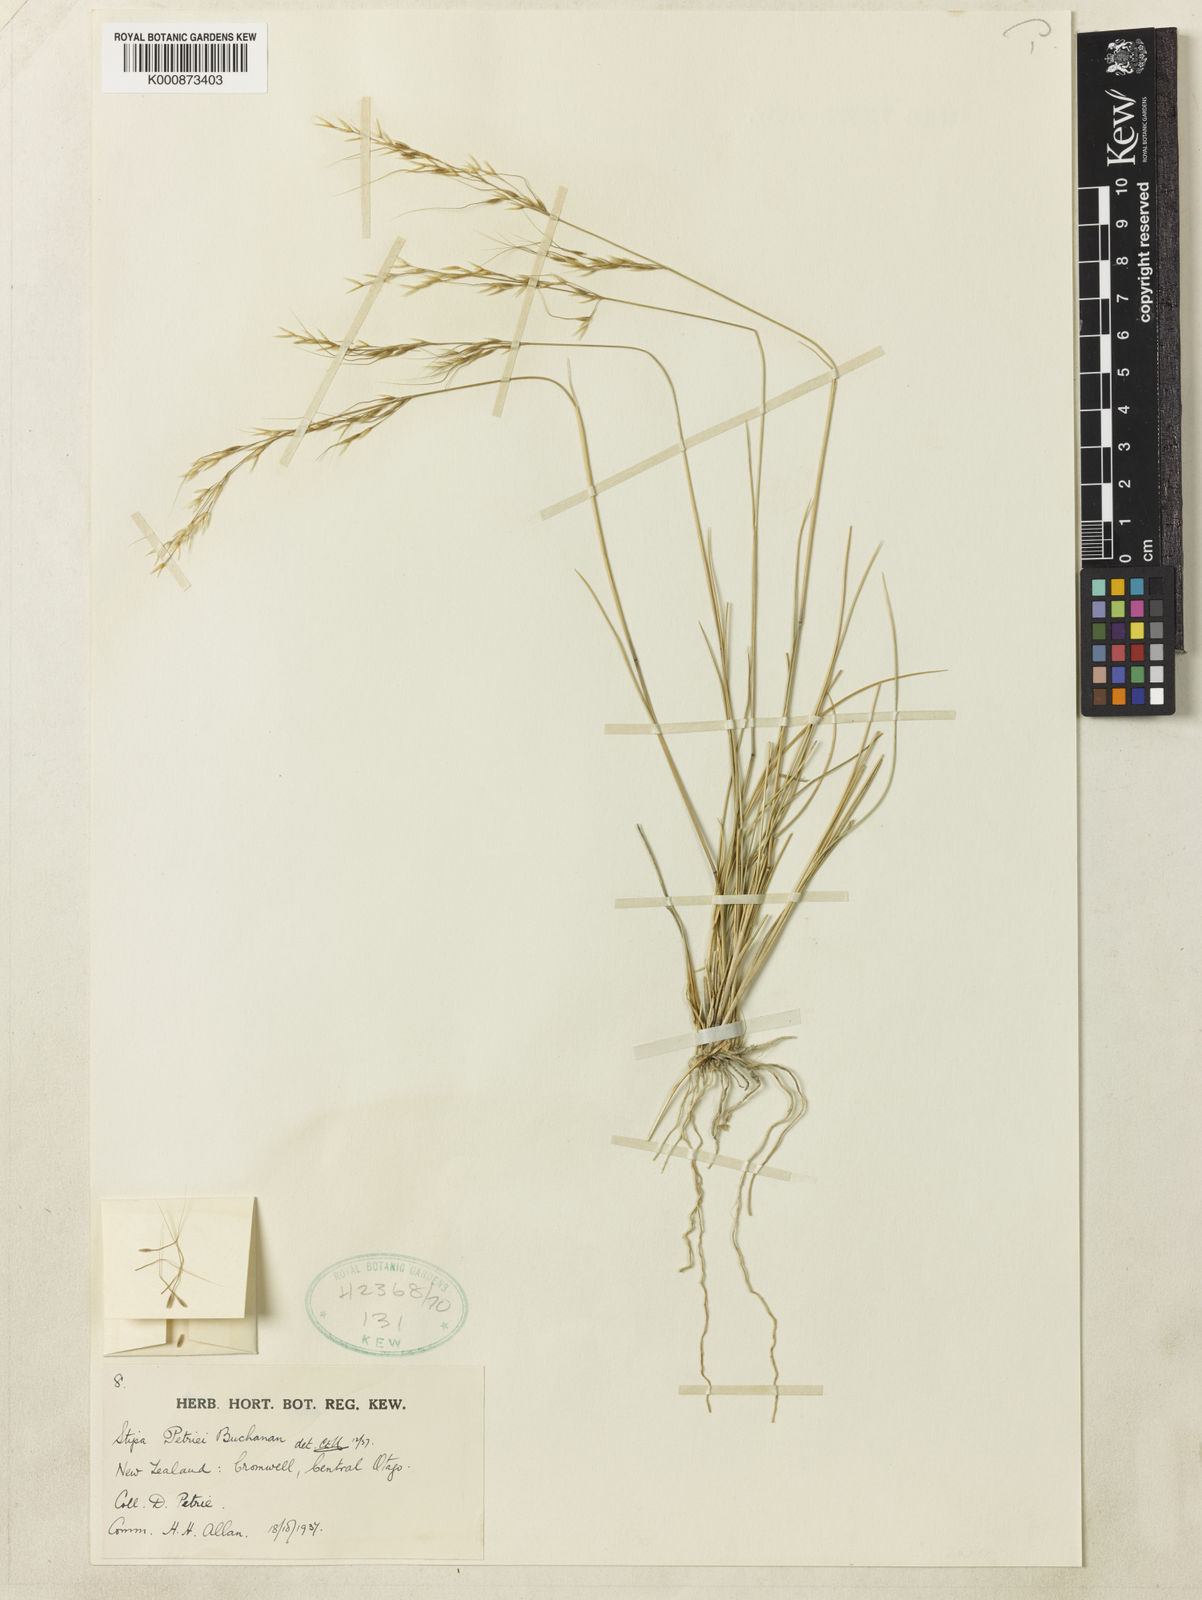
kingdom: Plantae
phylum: Tracheophyta
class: Liliopsida
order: Poales
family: Poaceae
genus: Stipa
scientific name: Stipa petriei
